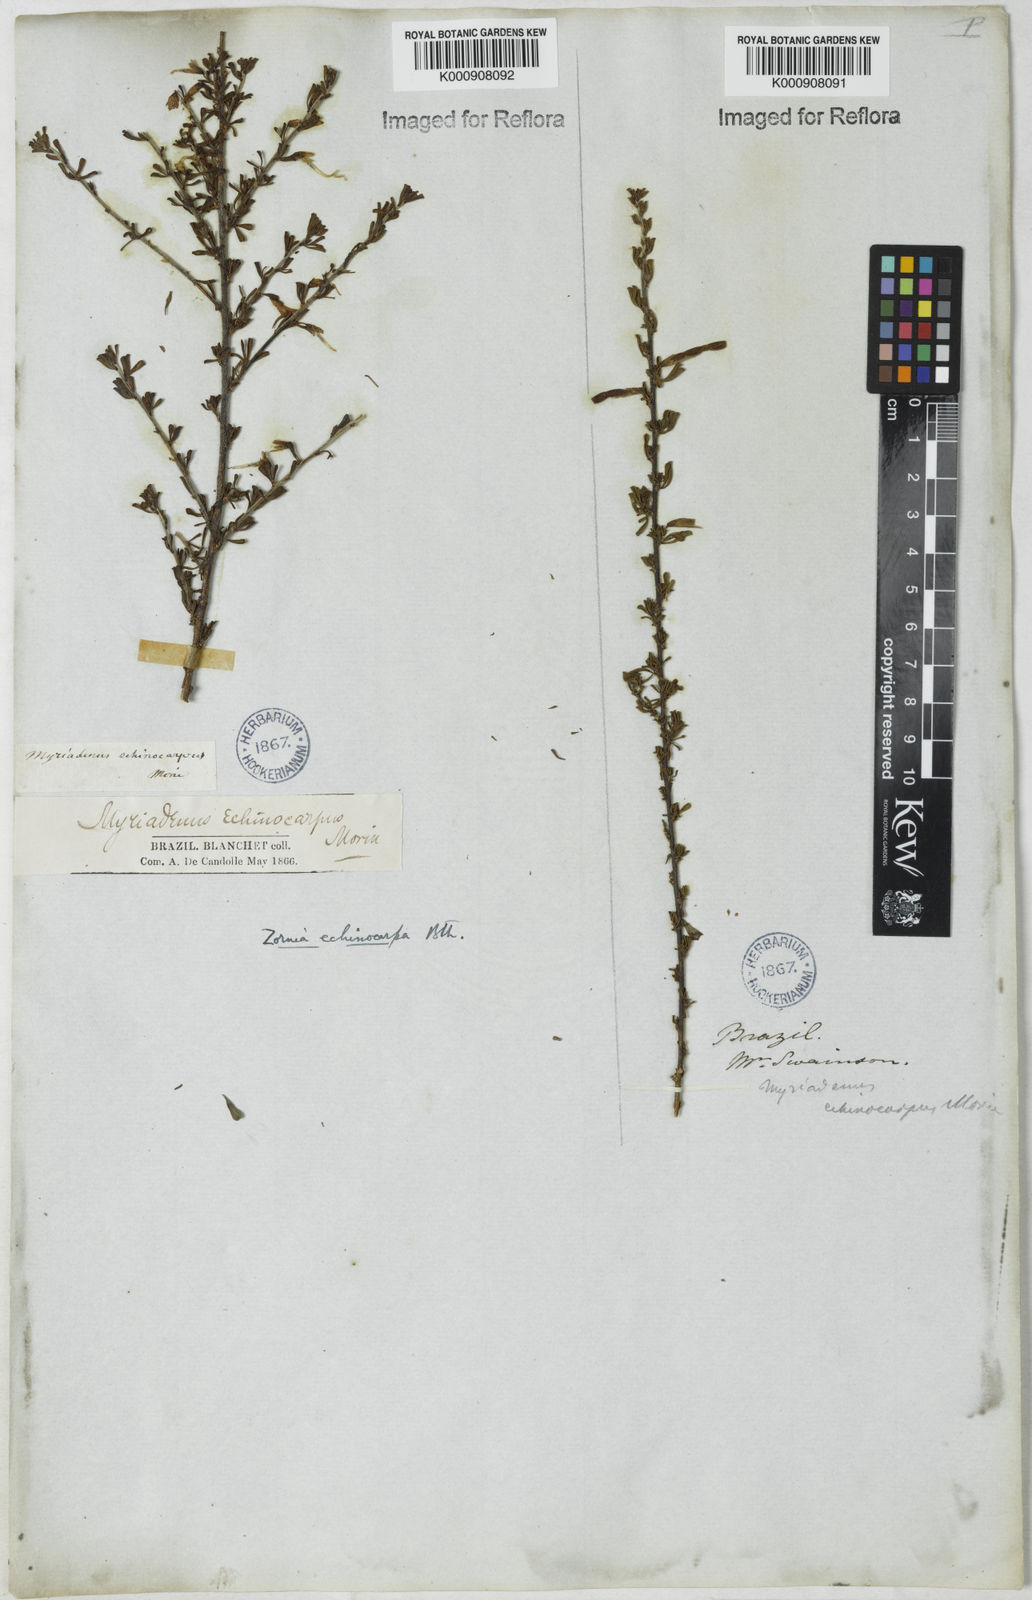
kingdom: Plantae
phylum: Tracheophyta
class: Magnoliopsida
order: Fabales
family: Fabaceae
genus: Zornia
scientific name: Zornia echinocarpa
